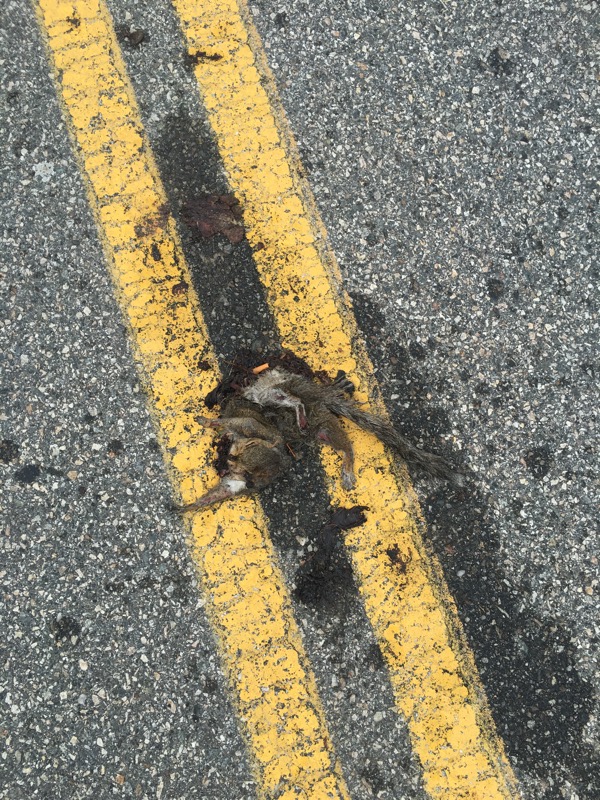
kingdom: Animalia
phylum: Chordata
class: Mammalia
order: Rodentia
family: Sciuridae
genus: Sciurus
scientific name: Sciurus carolinensis
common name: Eastern gray squirrel
